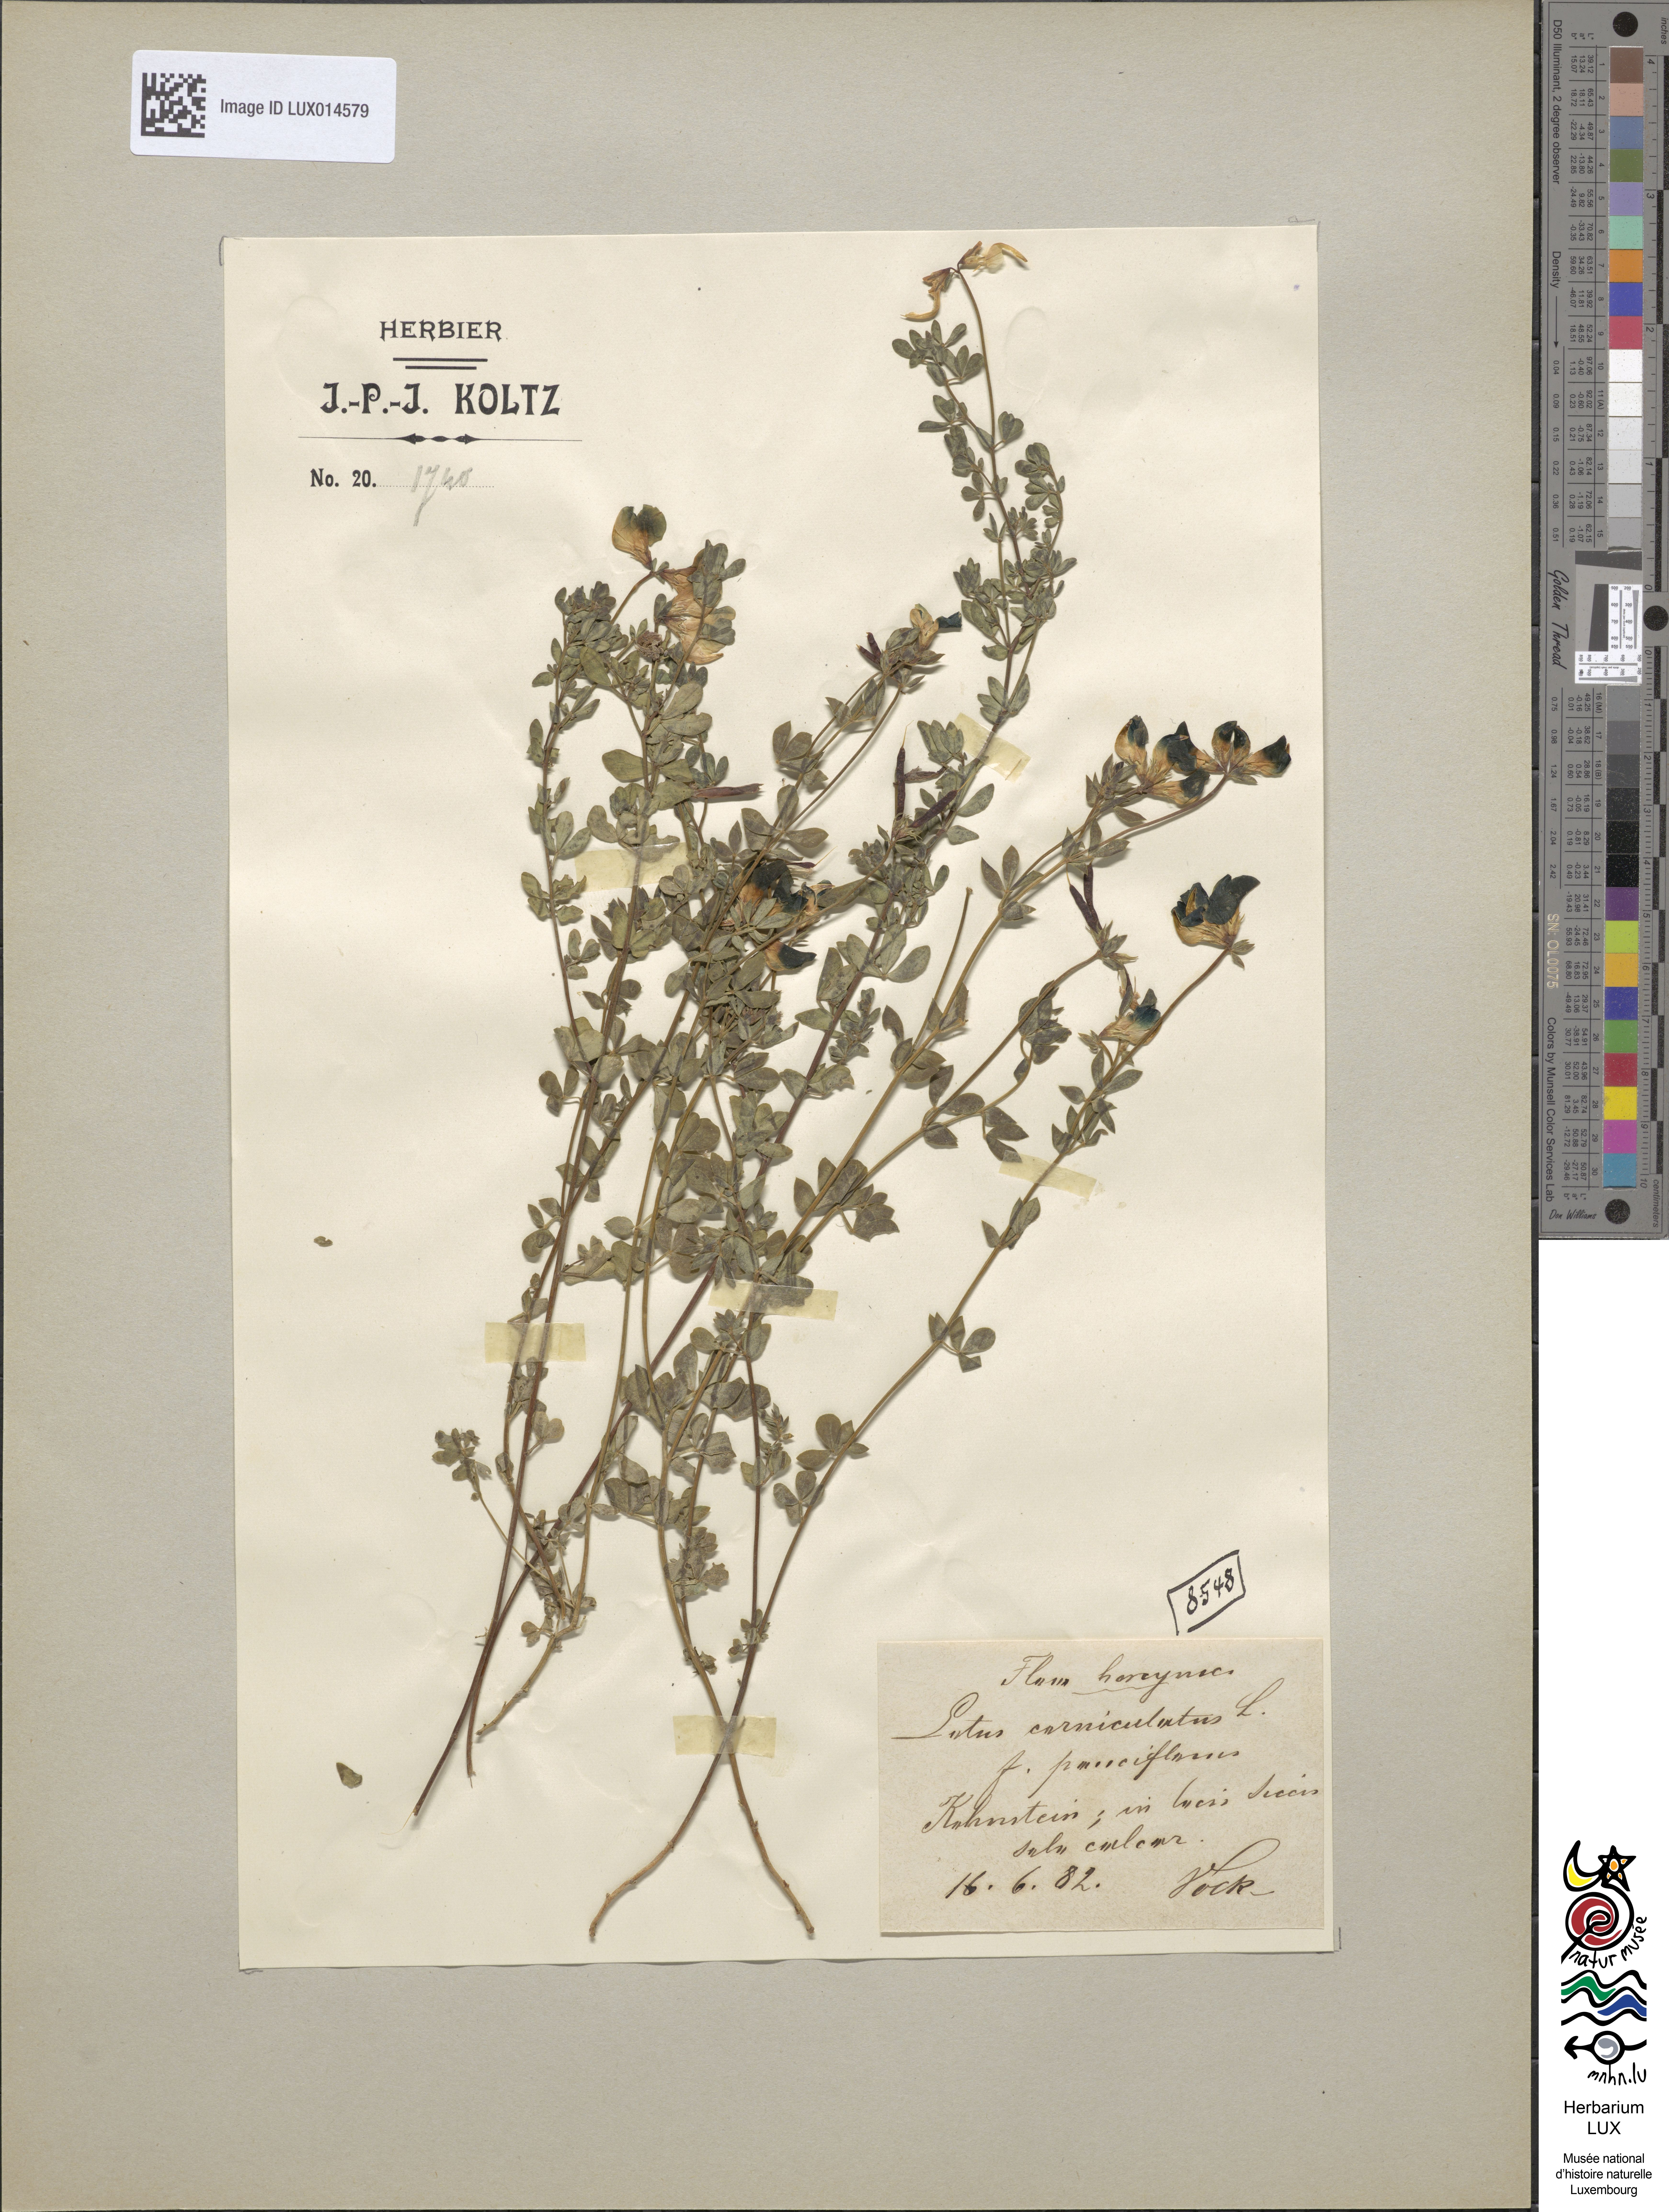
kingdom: Plantae
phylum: Tracheophyta
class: Magnoliopsida
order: Fabales
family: Fabaceae
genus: Lotus
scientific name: Lotus corniculatus
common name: Common bird's-foot-trefoil
